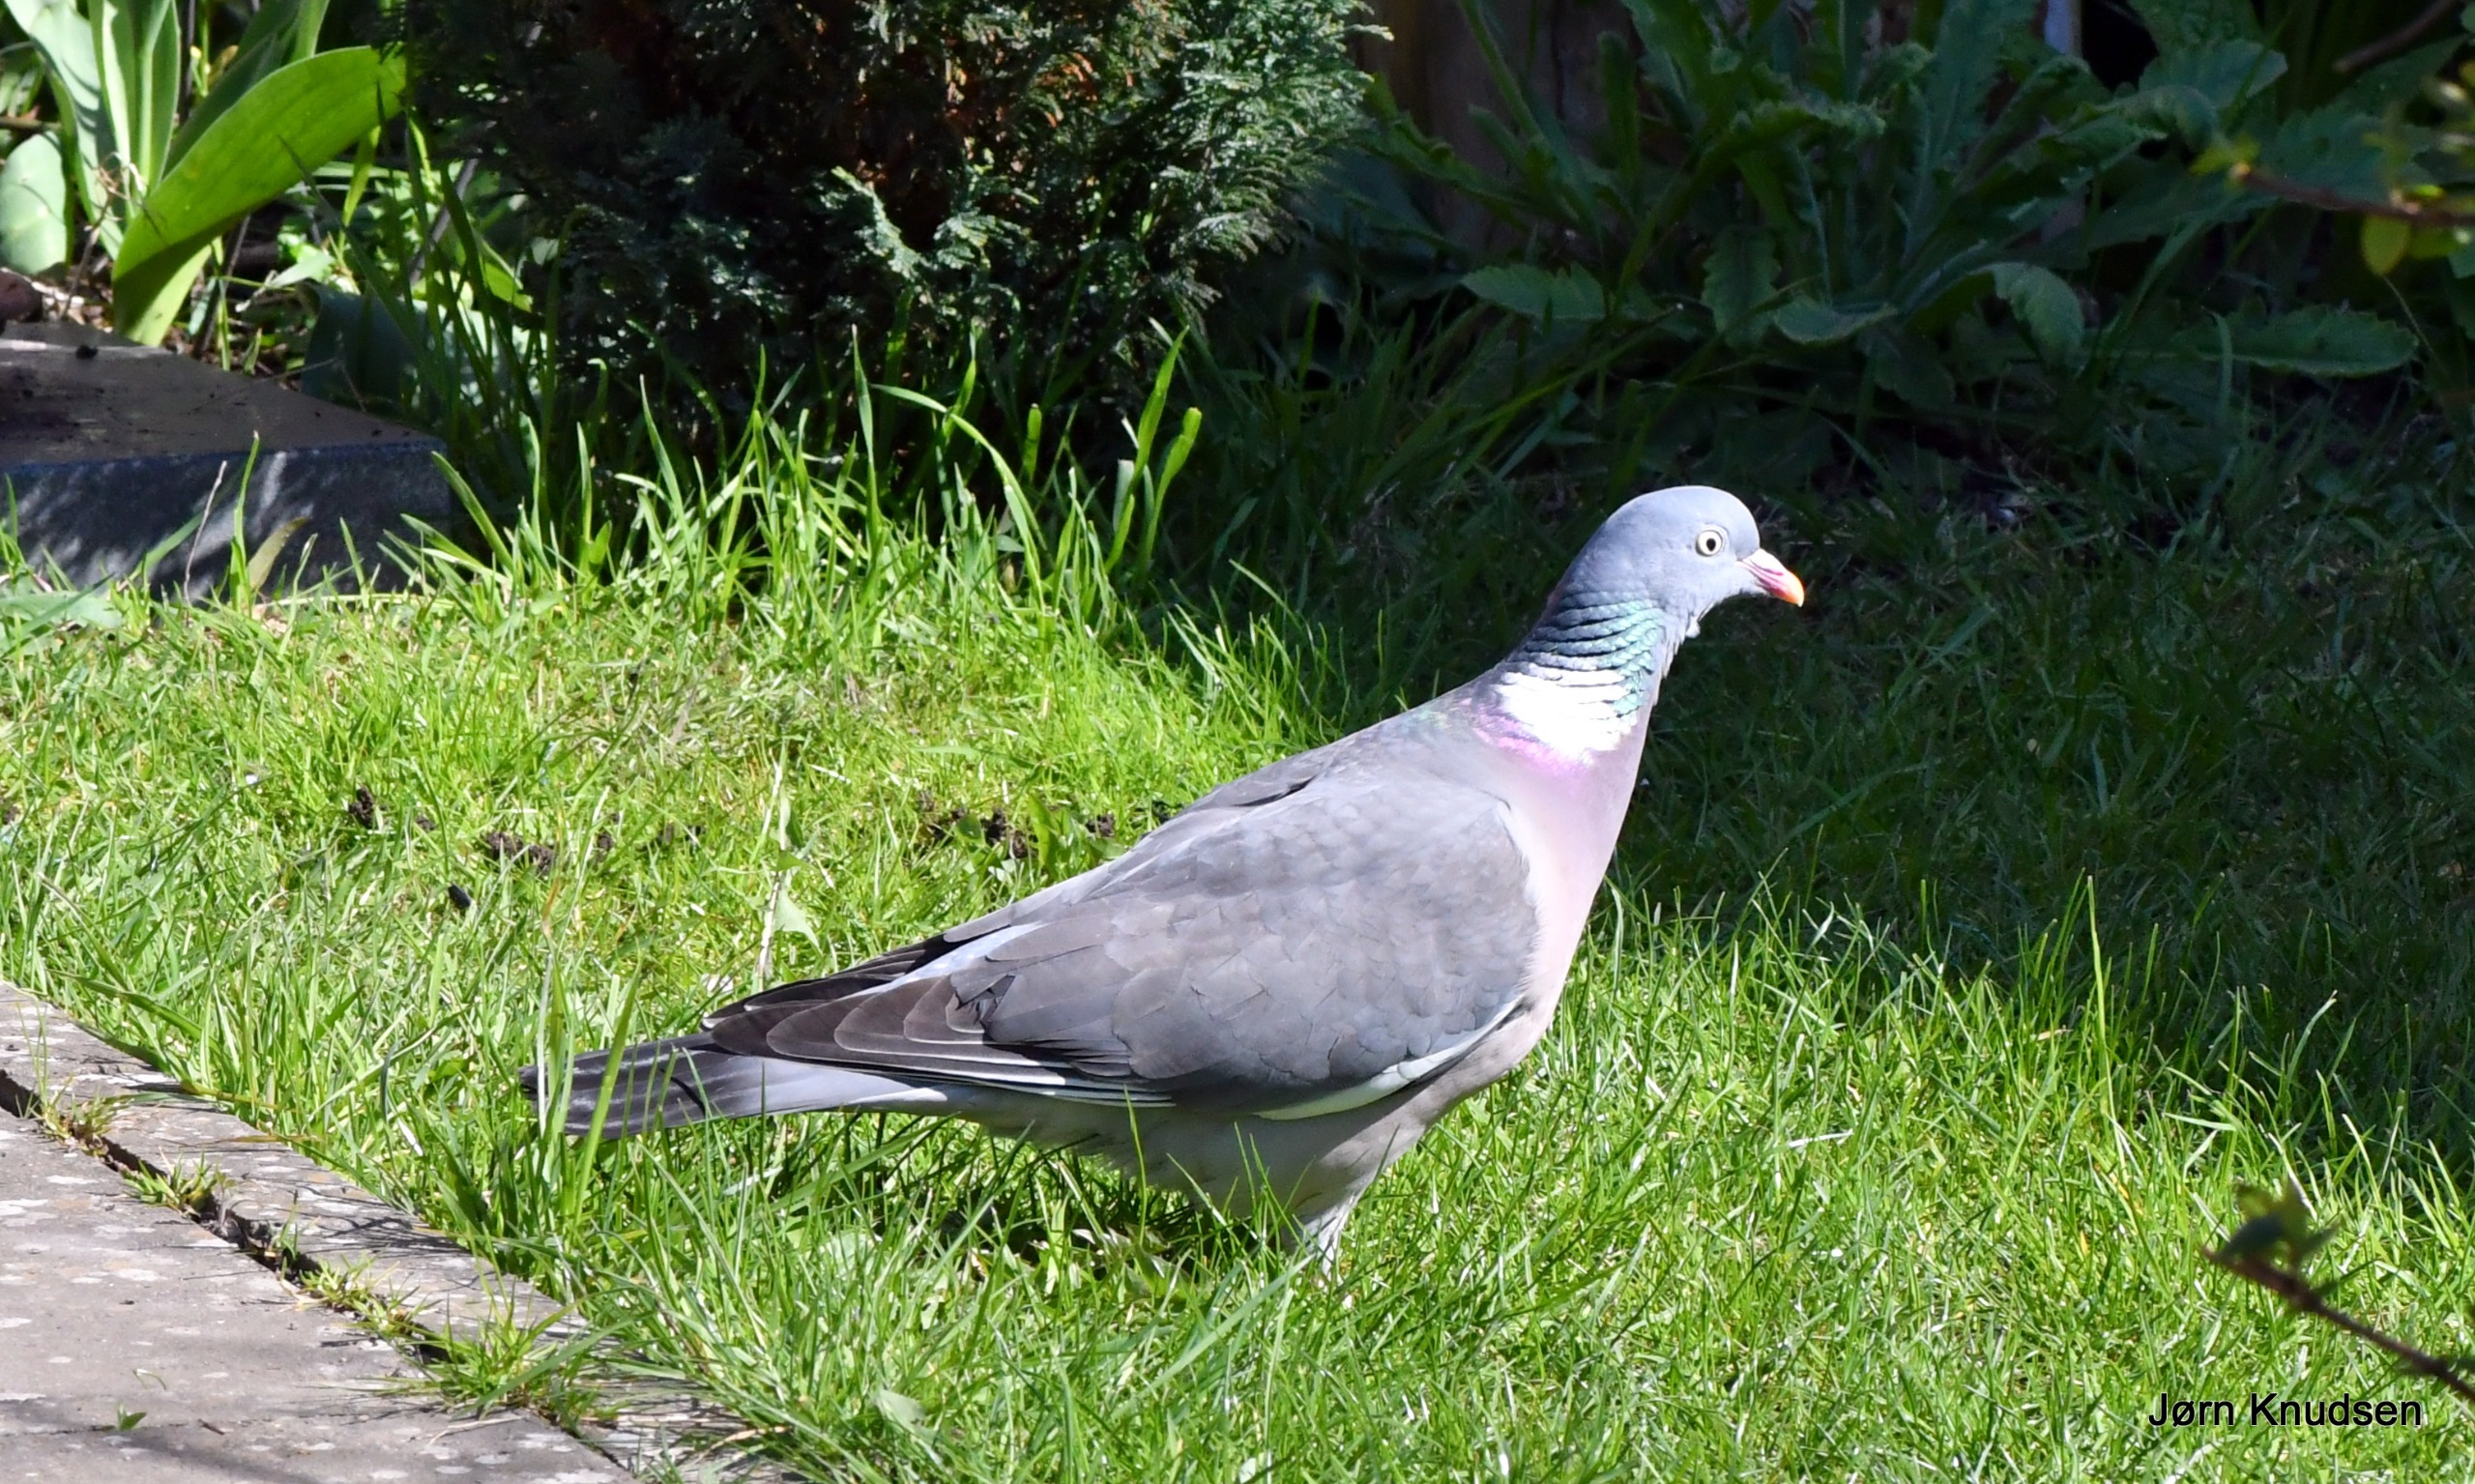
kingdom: Animalia
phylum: Chordata
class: Aves
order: Columbiformes
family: Columbidae
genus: Columba
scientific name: Columba palumbus
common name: Ringdue
